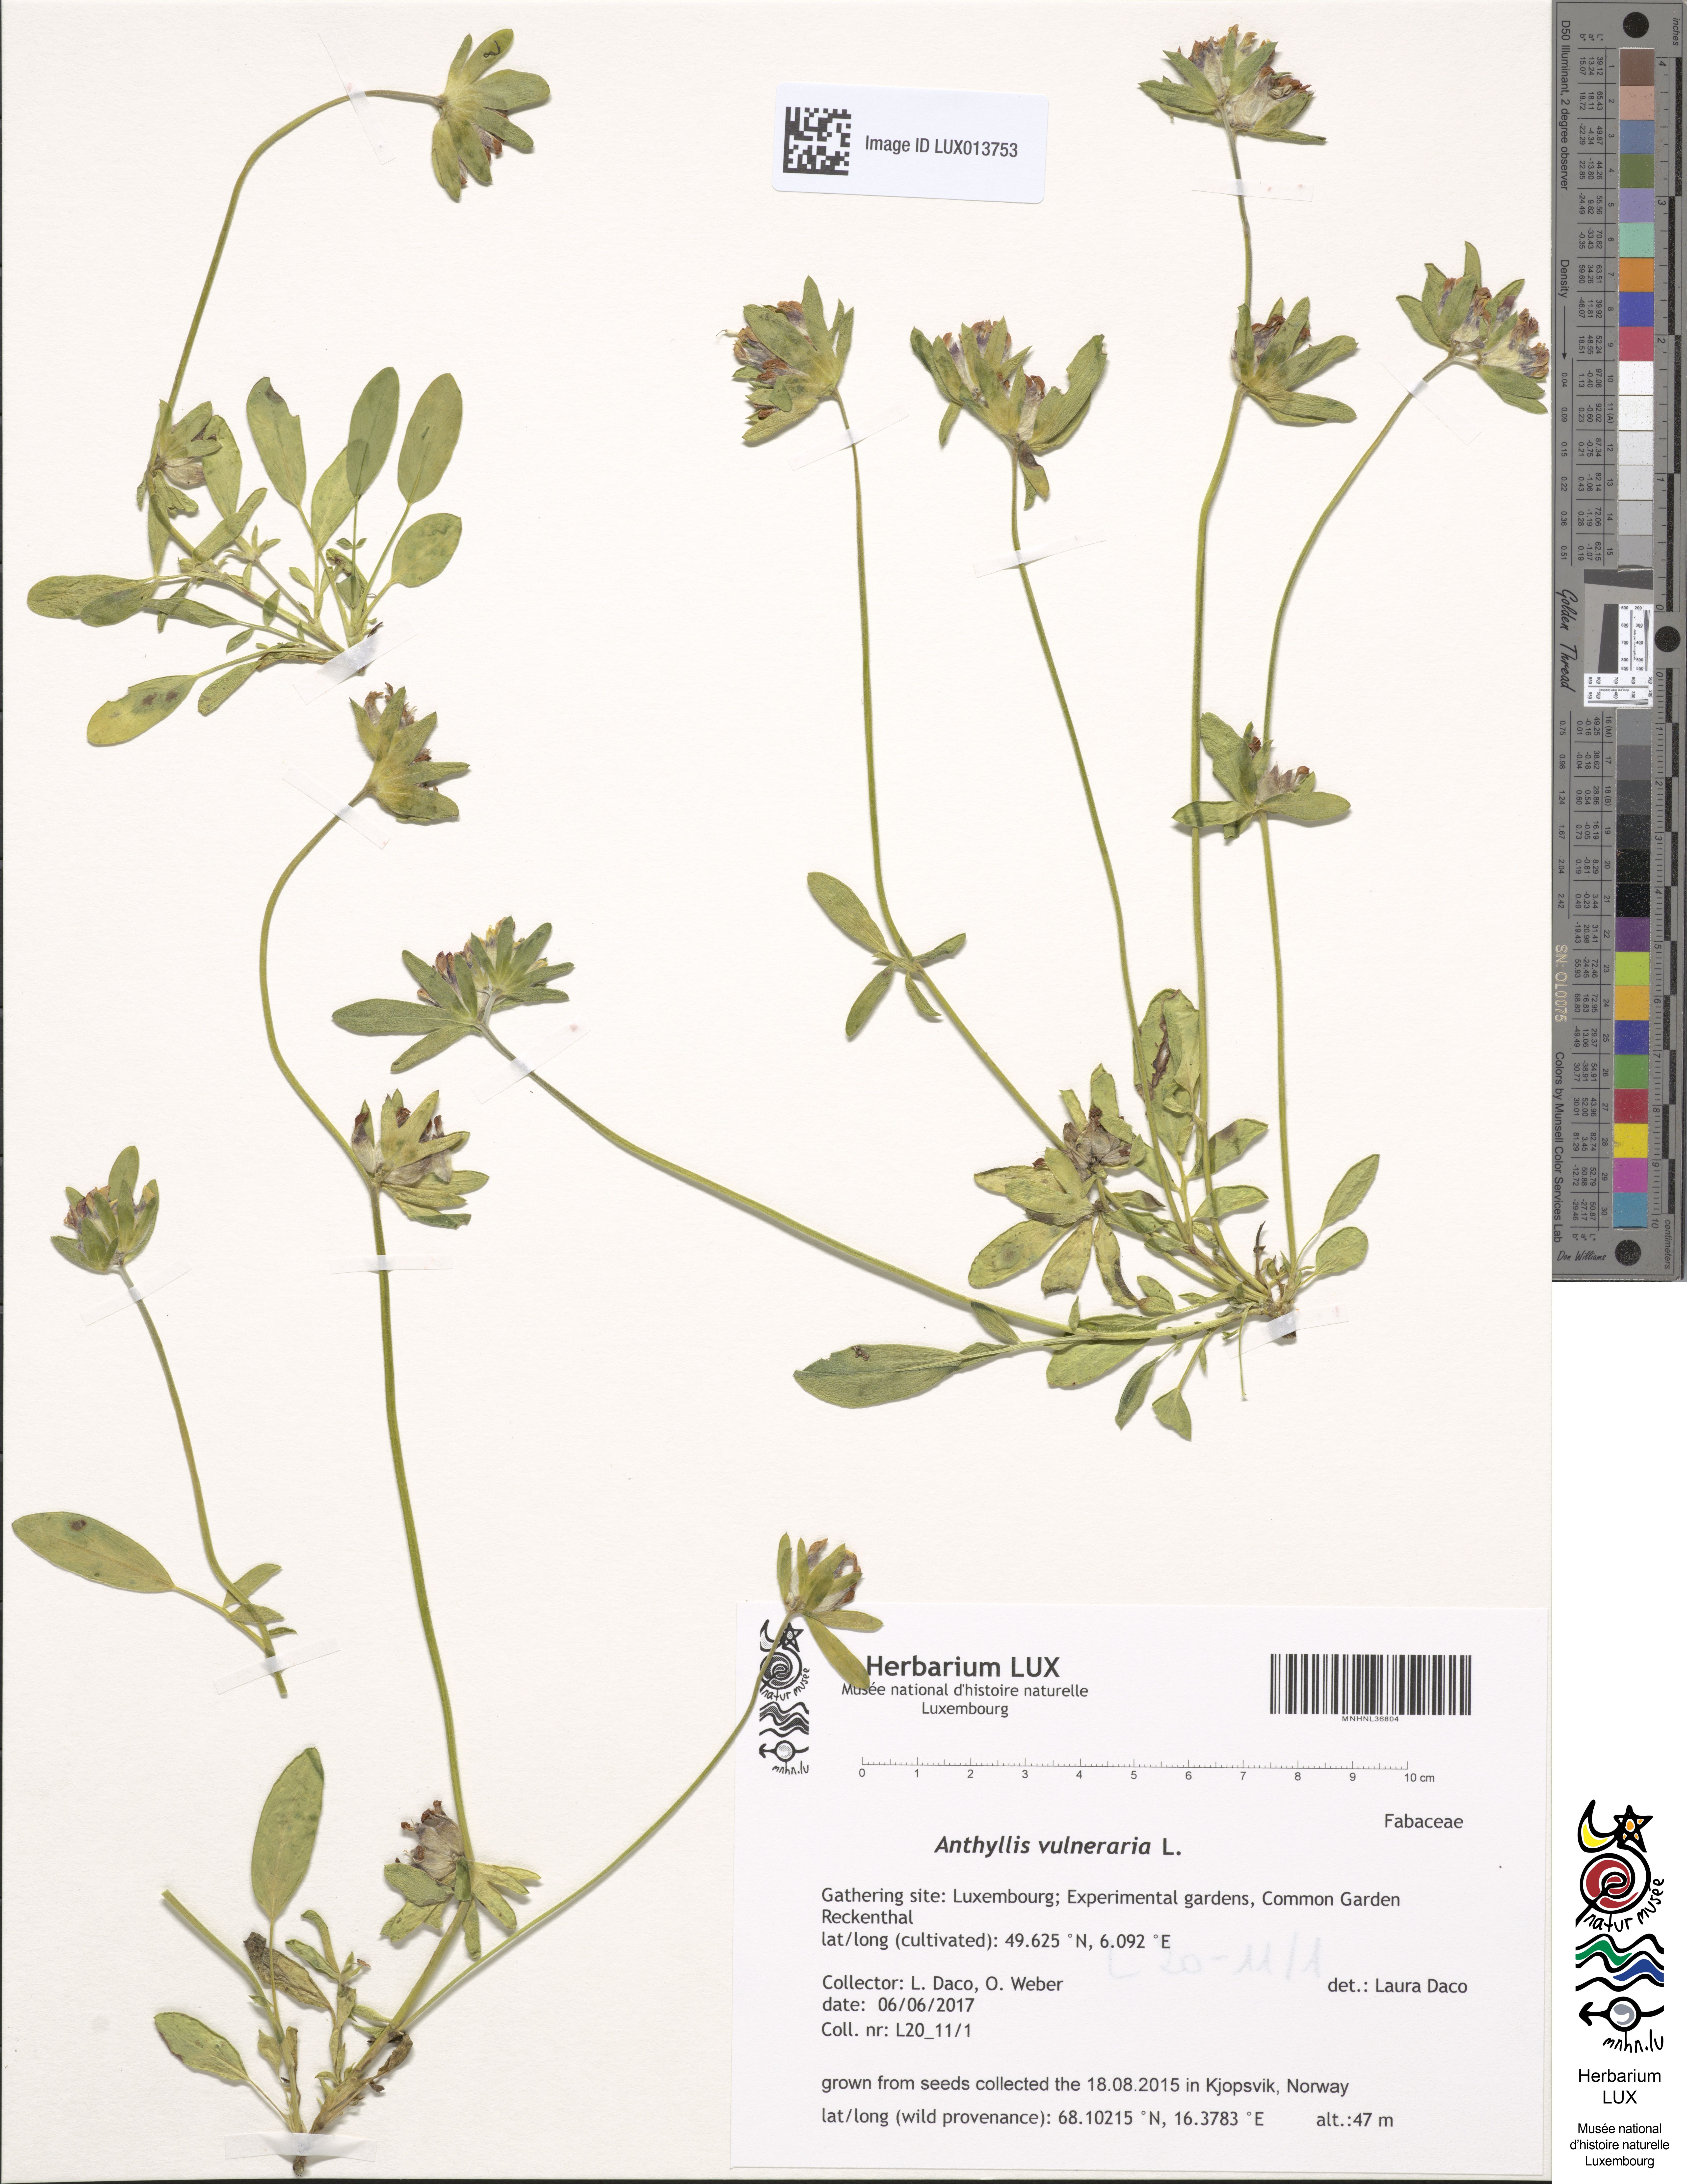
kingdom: Plantae
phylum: Tracheophyta
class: Magnoliopsida
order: Fabales
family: Fabaceae
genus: Anthyllis
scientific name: Anthyllis vulneraria
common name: Kidney vetch
